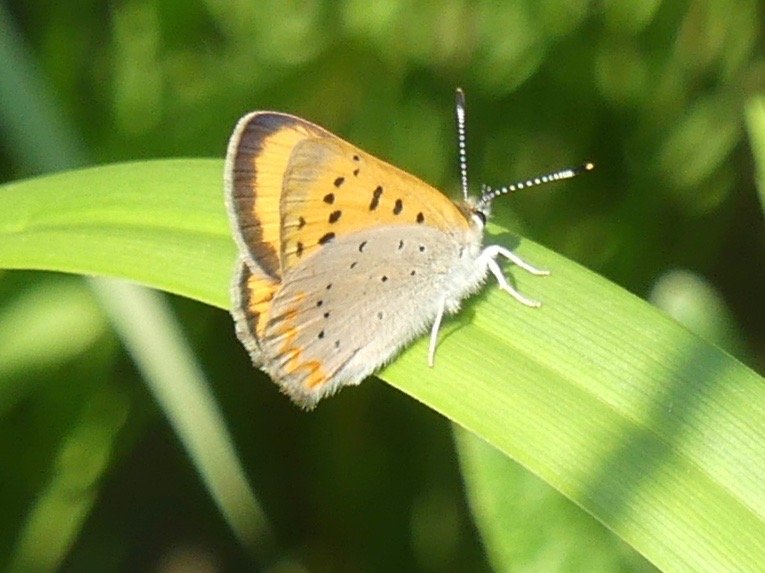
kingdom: Animalia
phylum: Arthropoda
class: Insecta
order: Lepidoptera
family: Sesiidae
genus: Sesia
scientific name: Sesia Lycaena helloides
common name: Purplish Copper
